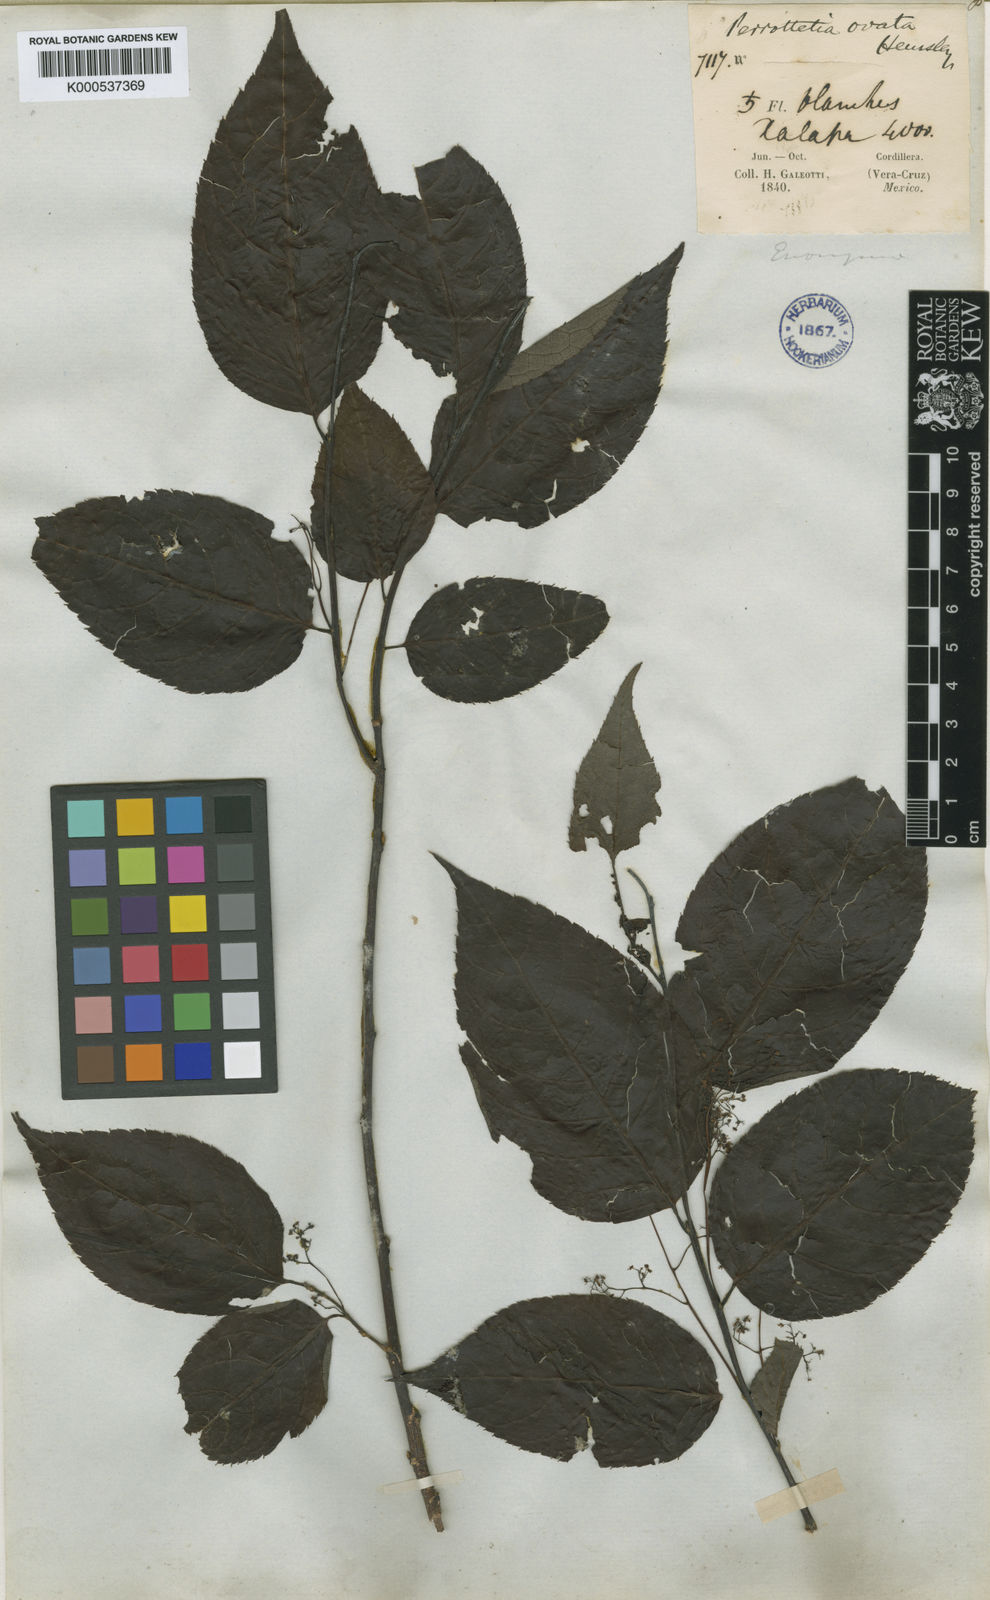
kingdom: Plantae
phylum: Tracheophyta
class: Magnoliopsida
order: Huerteales
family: Dipentodontaceae
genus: Perrottetia
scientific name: Perrottetia ovata
